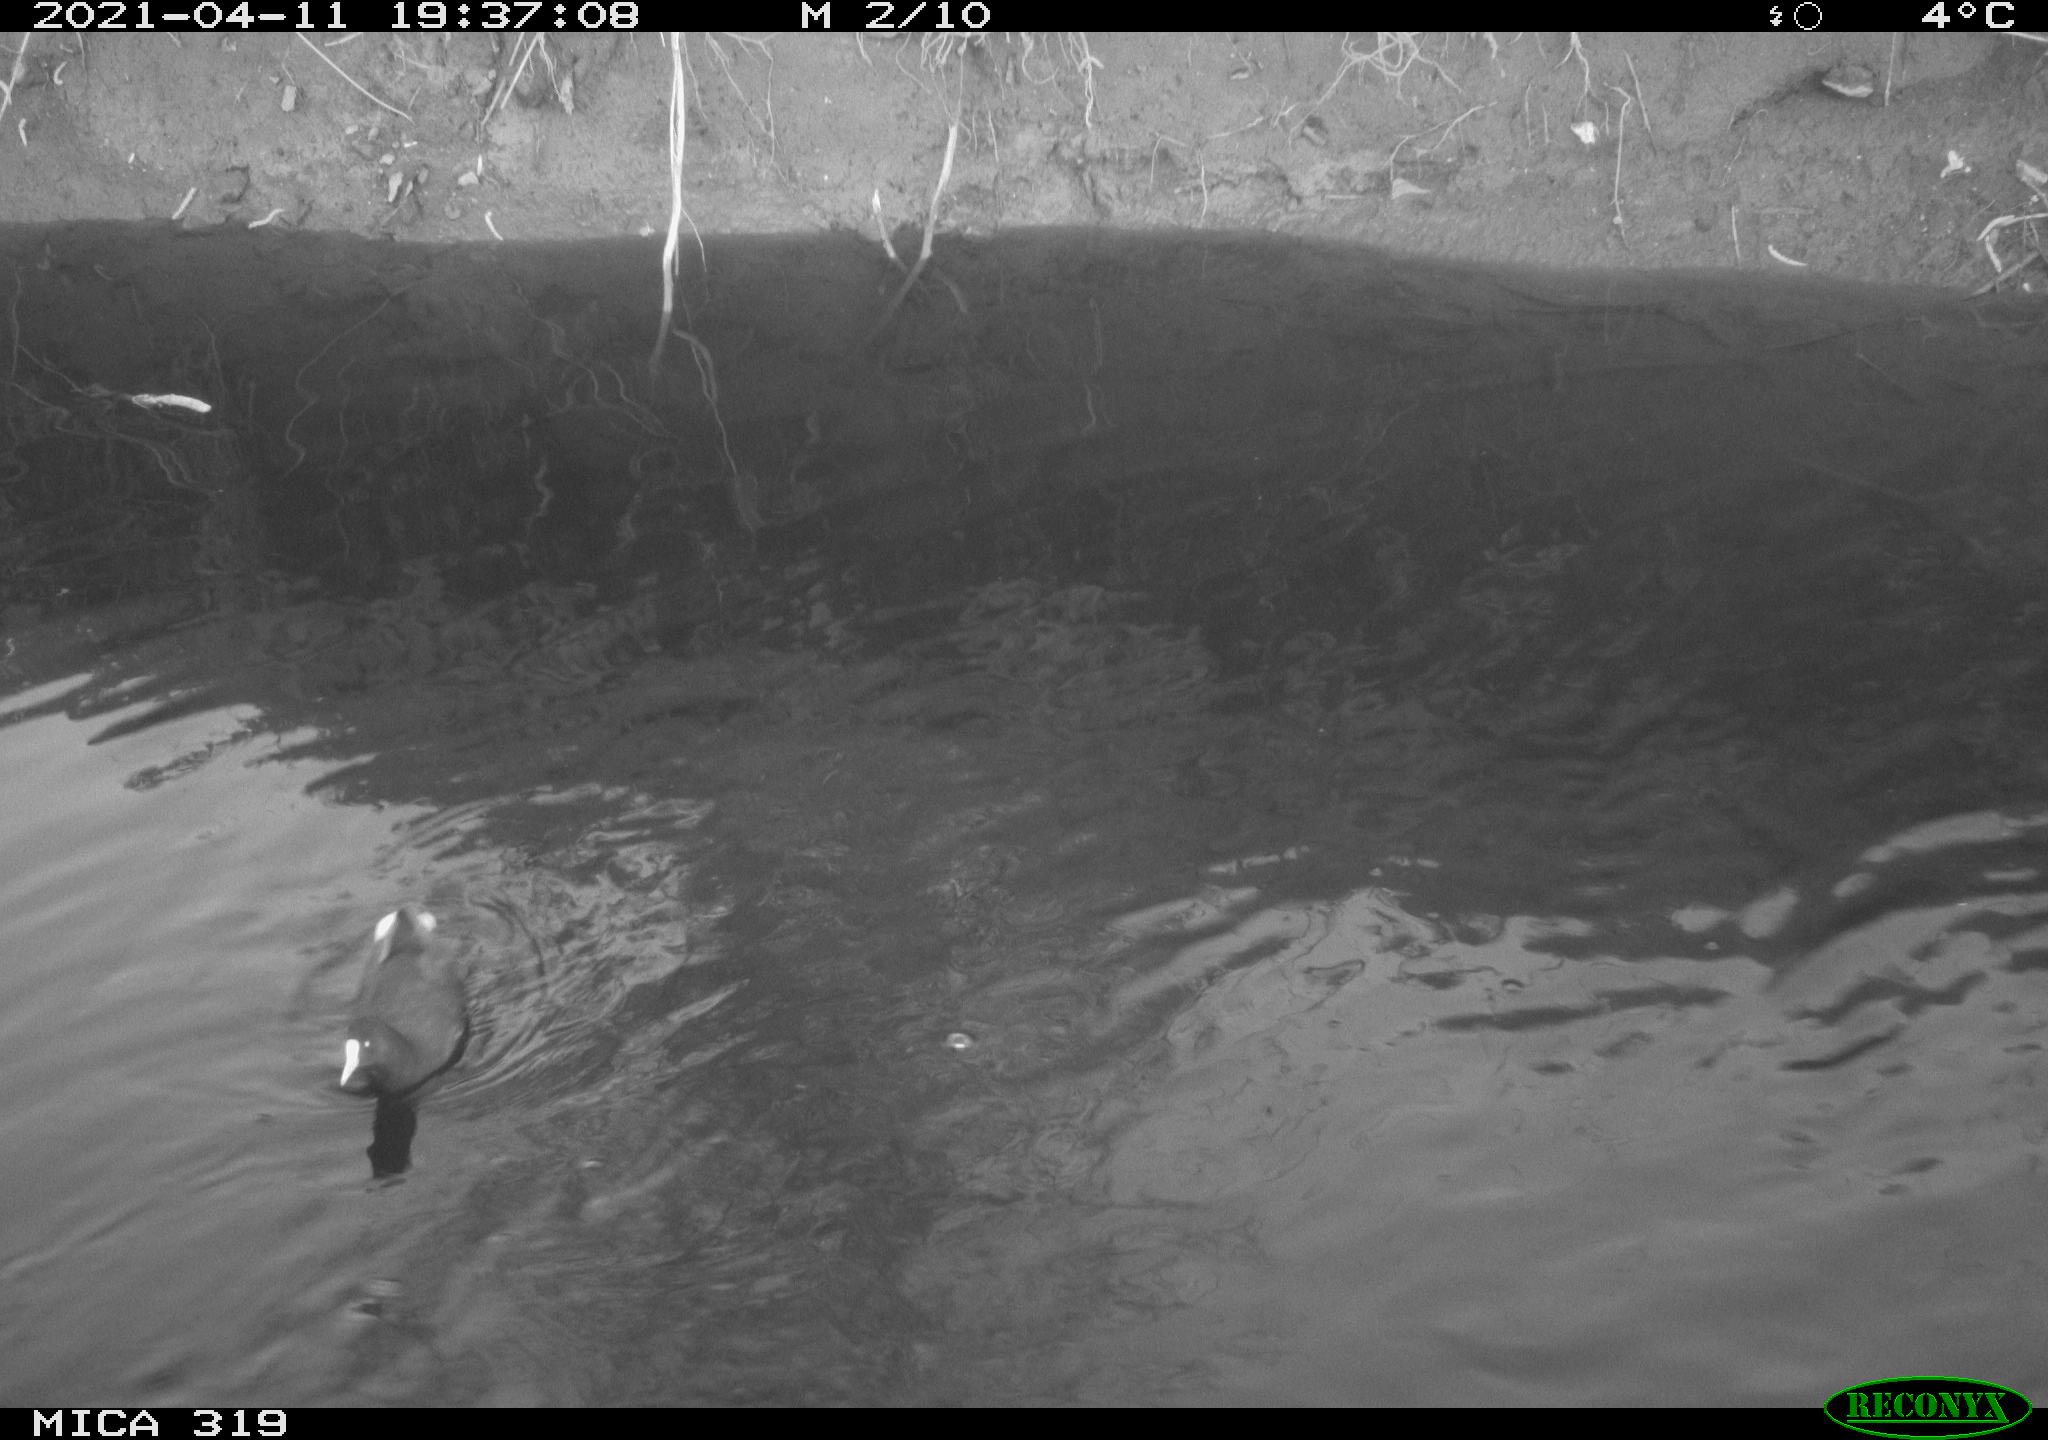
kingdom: Animalia
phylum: Chordata
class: Aves
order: Gruiformes
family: Rallidae
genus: Gallinula
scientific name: Gallinula chloropus
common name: Common moorhen
